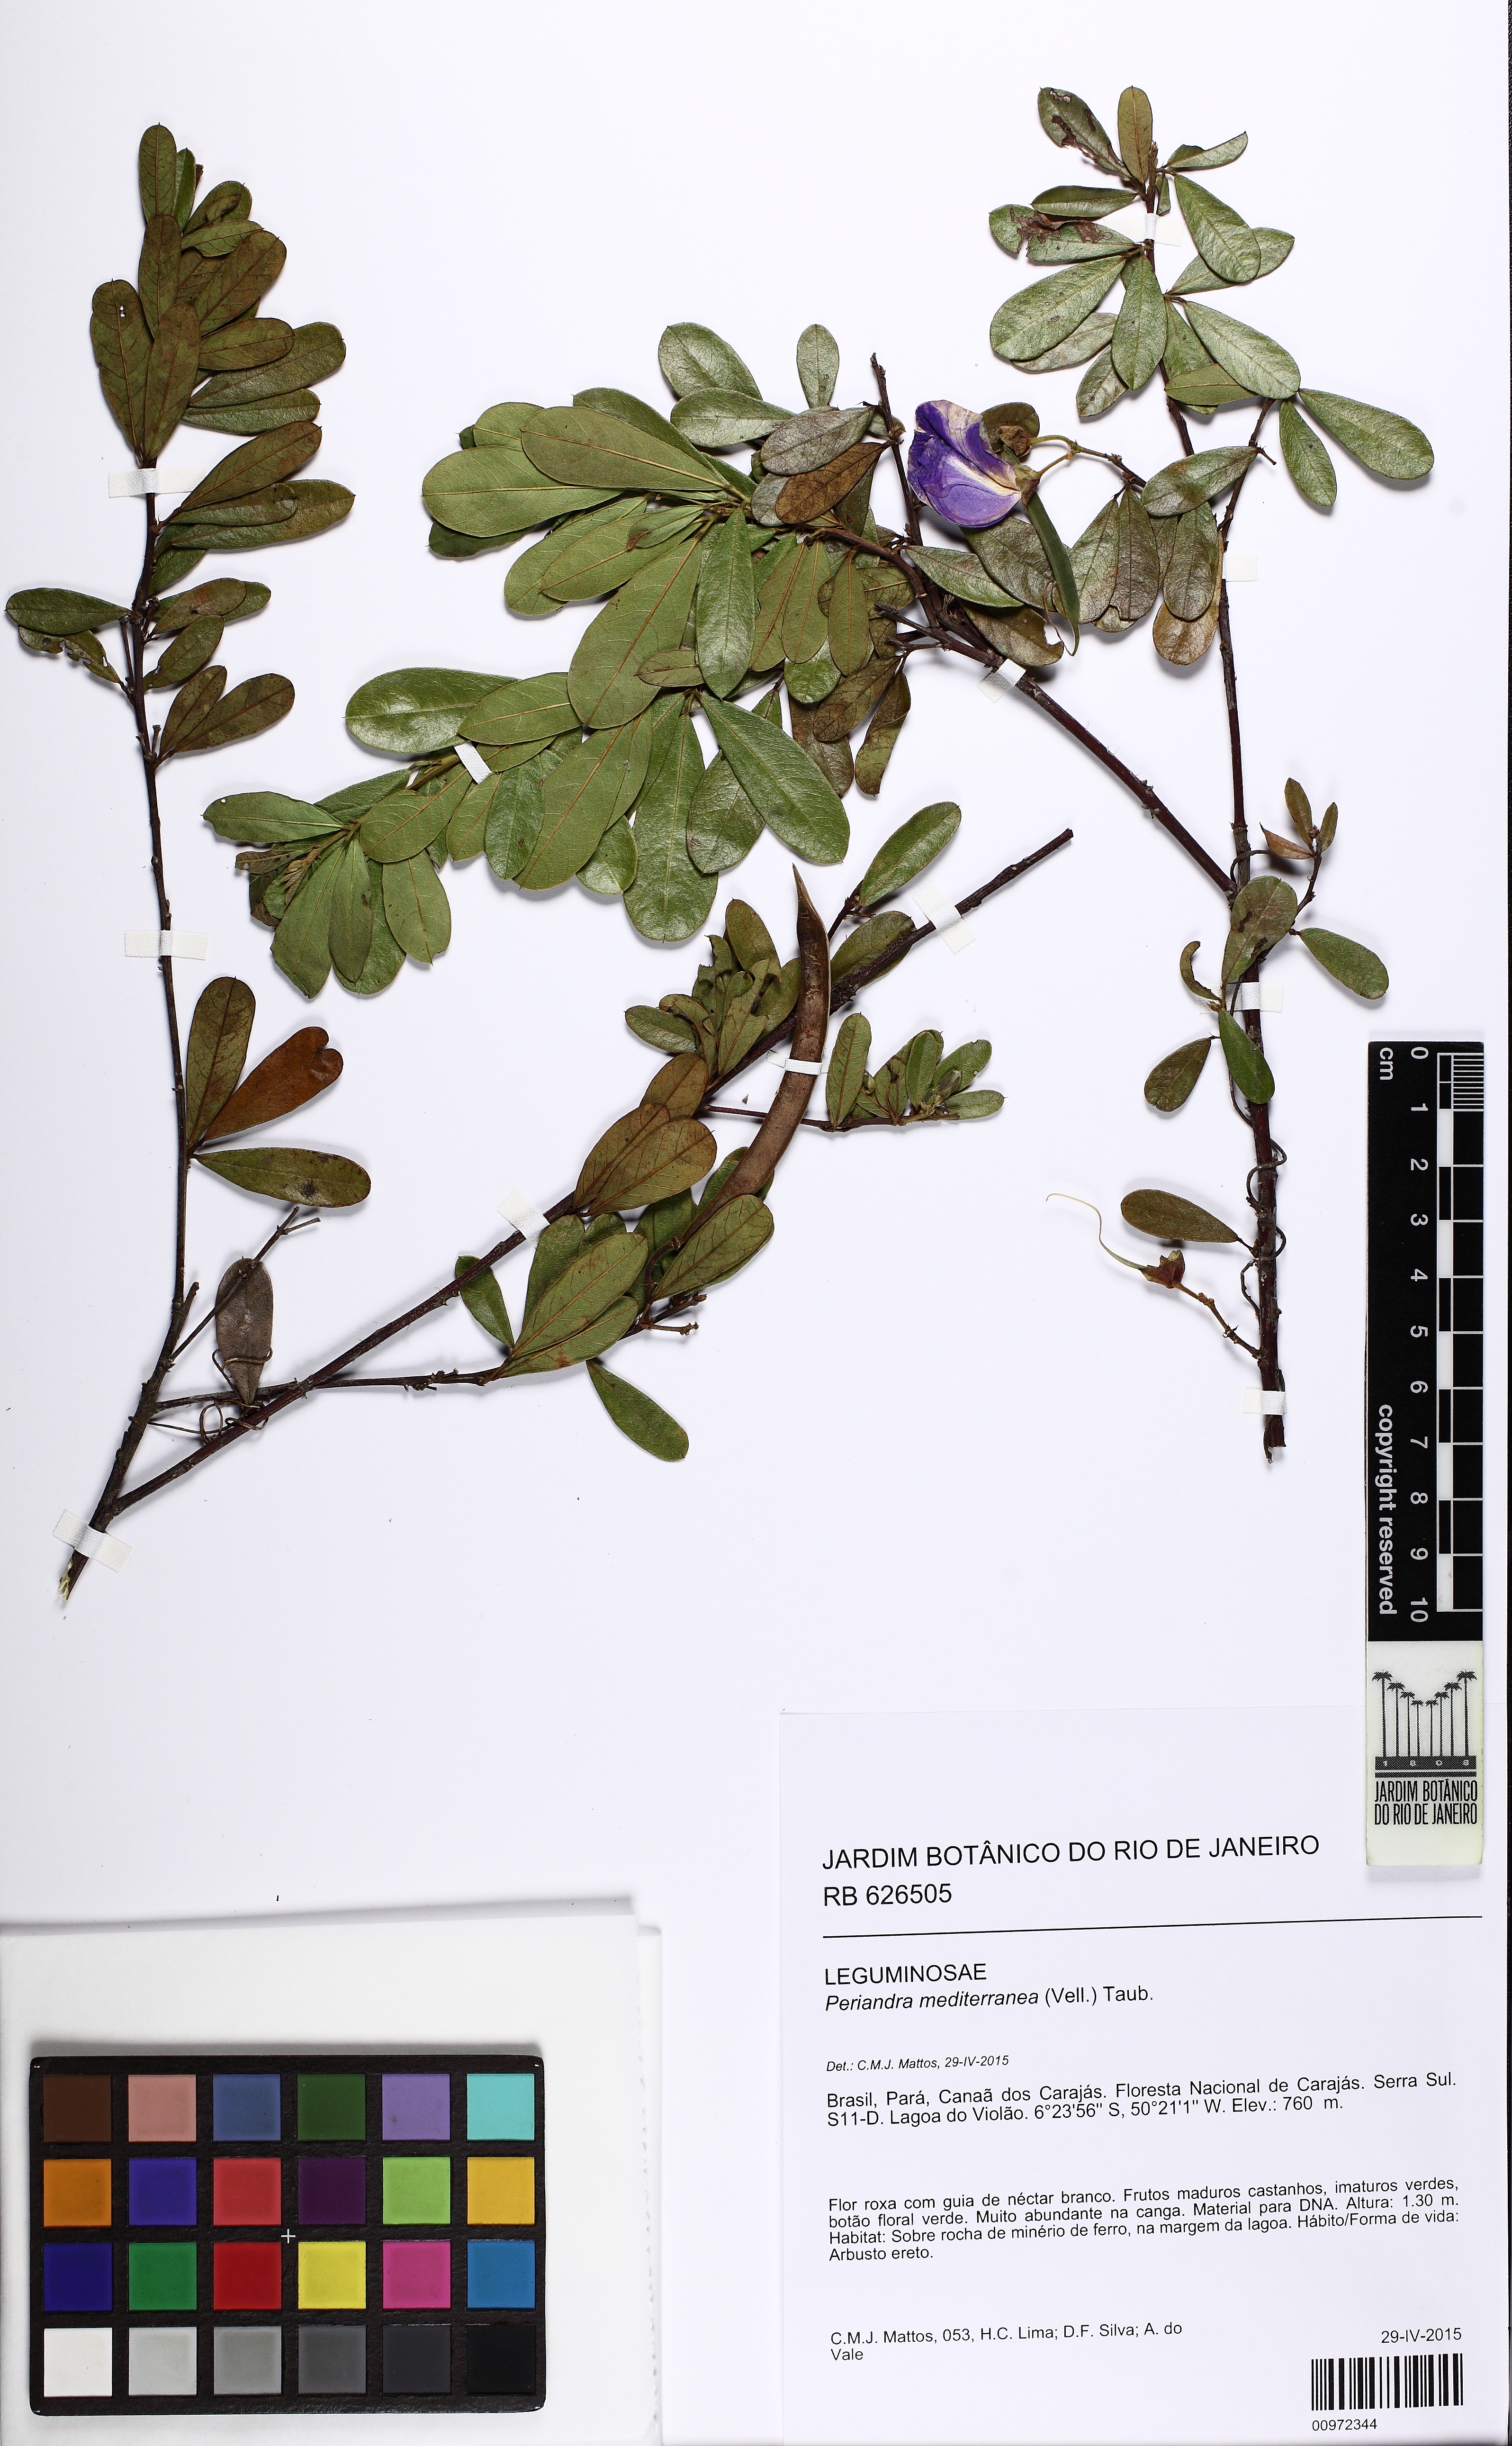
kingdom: Plantae
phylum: Tracheophyta
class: Magnoliopsida
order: Fabales
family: Fabaceae
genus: Periandra
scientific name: Periandra mediterranea
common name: Brazilian licorice
